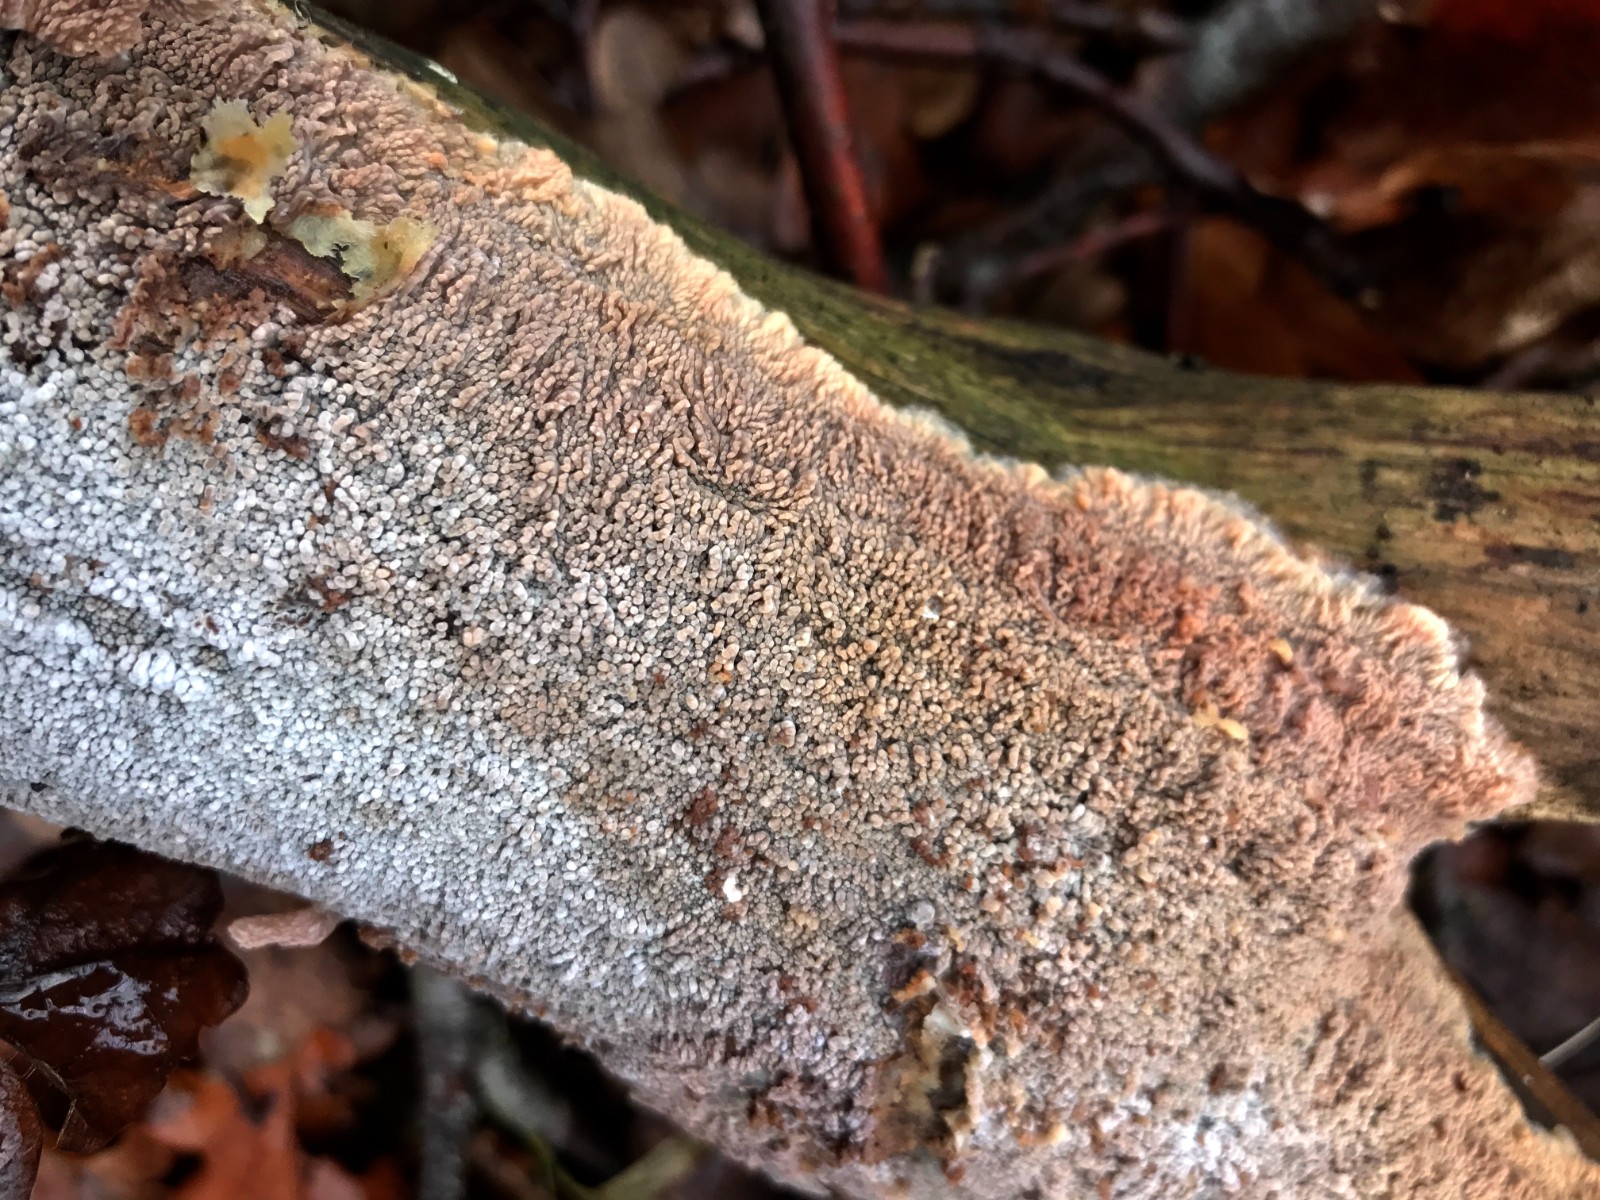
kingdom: Fungi
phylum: Basidiomycota
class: Agaricomycetes
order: Polyporales
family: Meruliaceae
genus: Phlebia
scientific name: Phlebia radiata
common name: stråle-åresvamp
